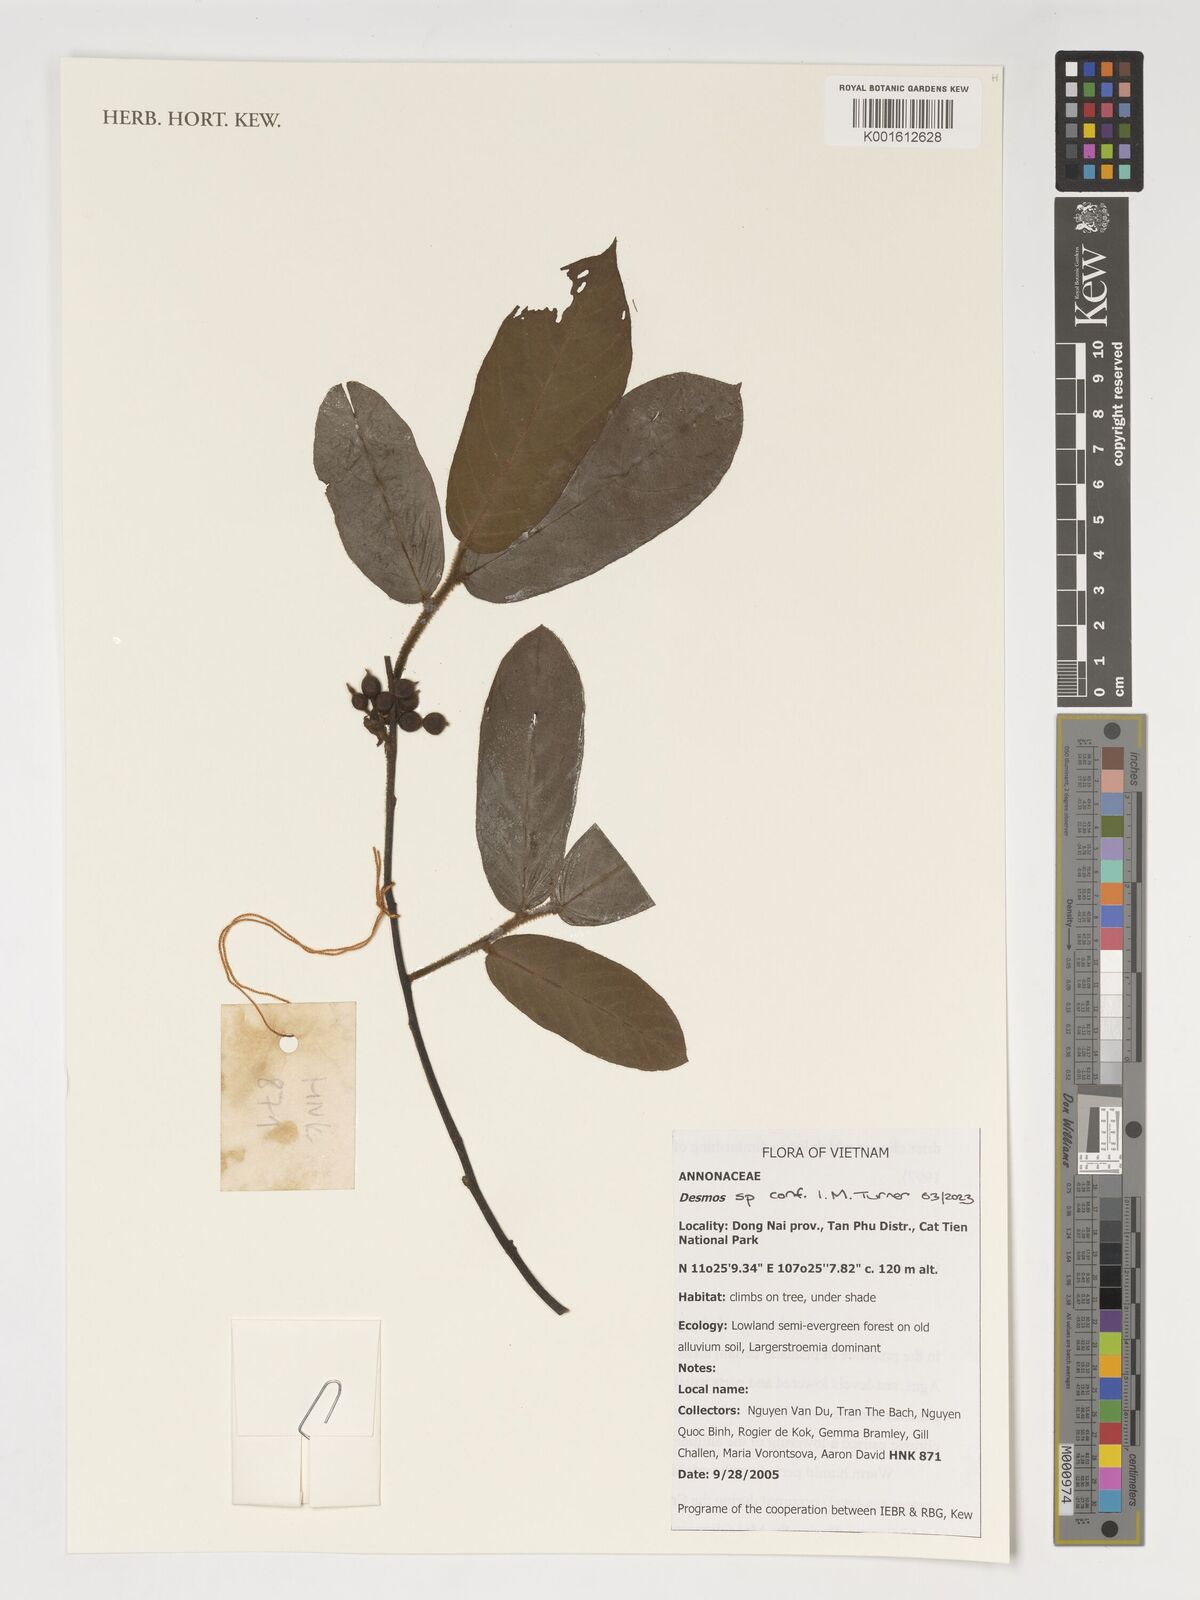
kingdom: Plantae
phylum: Tracheophyta
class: Magnoliopsida
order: Magnoliales
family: Annonaceae
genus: Desmos
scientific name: Desmos
